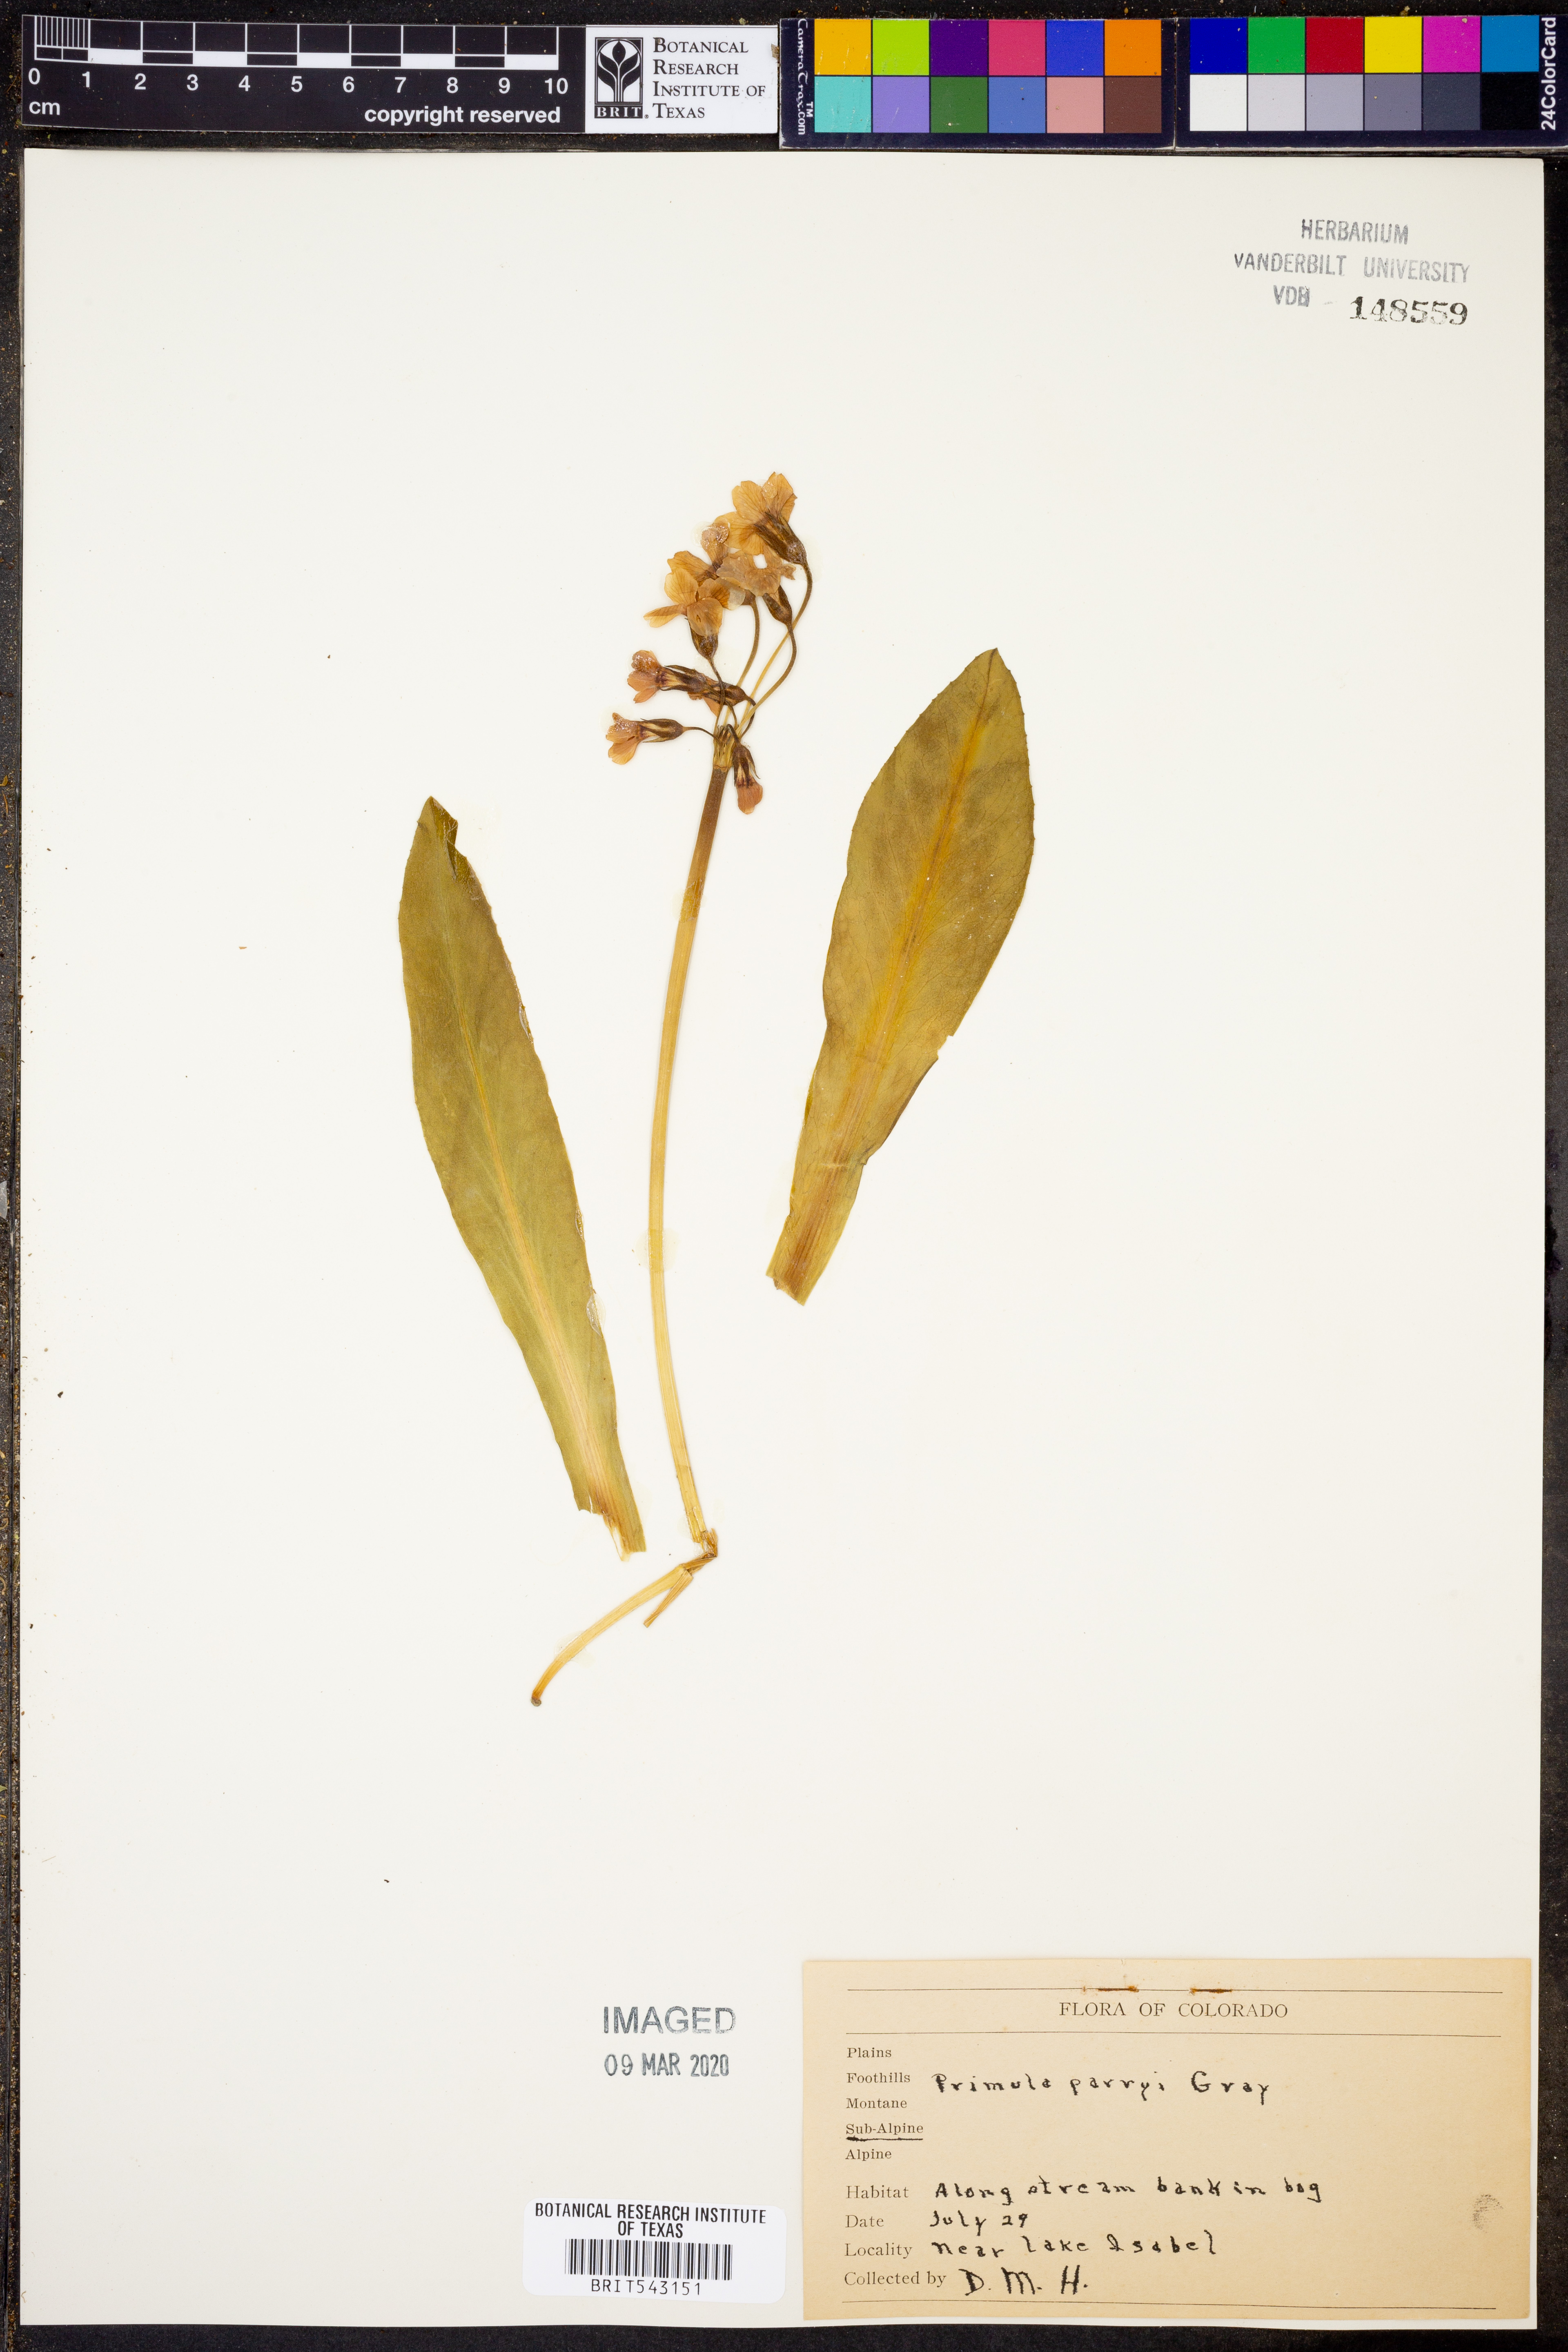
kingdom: Plantae
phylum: Tracheophyta
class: Magnoliopsida
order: Ericales
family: Primulaceae
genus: Primula
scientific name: Primula parryi
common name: Parry's primrose
